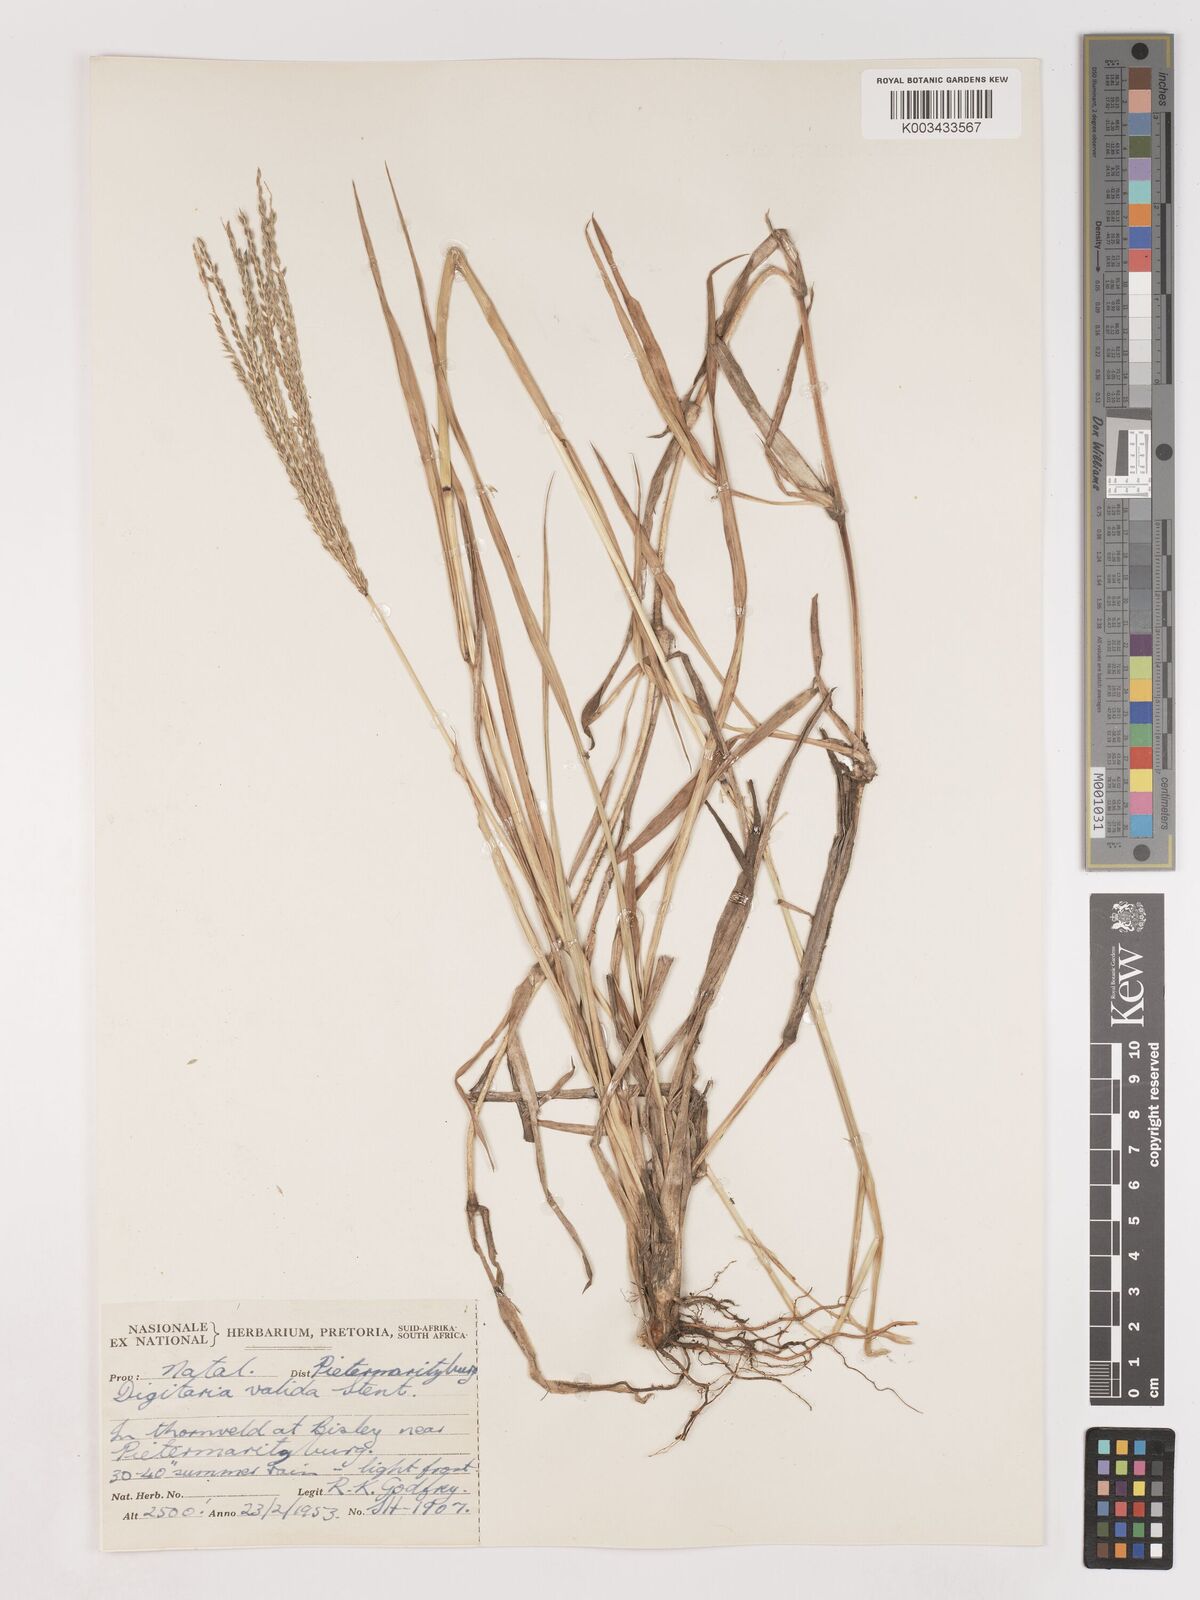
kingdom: Plantae
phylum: Tracheophyta
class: Liliopsida
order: Poales
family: Poaceae
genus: Digitaria
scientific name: Digitaria eriantha
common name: Digitgrass
